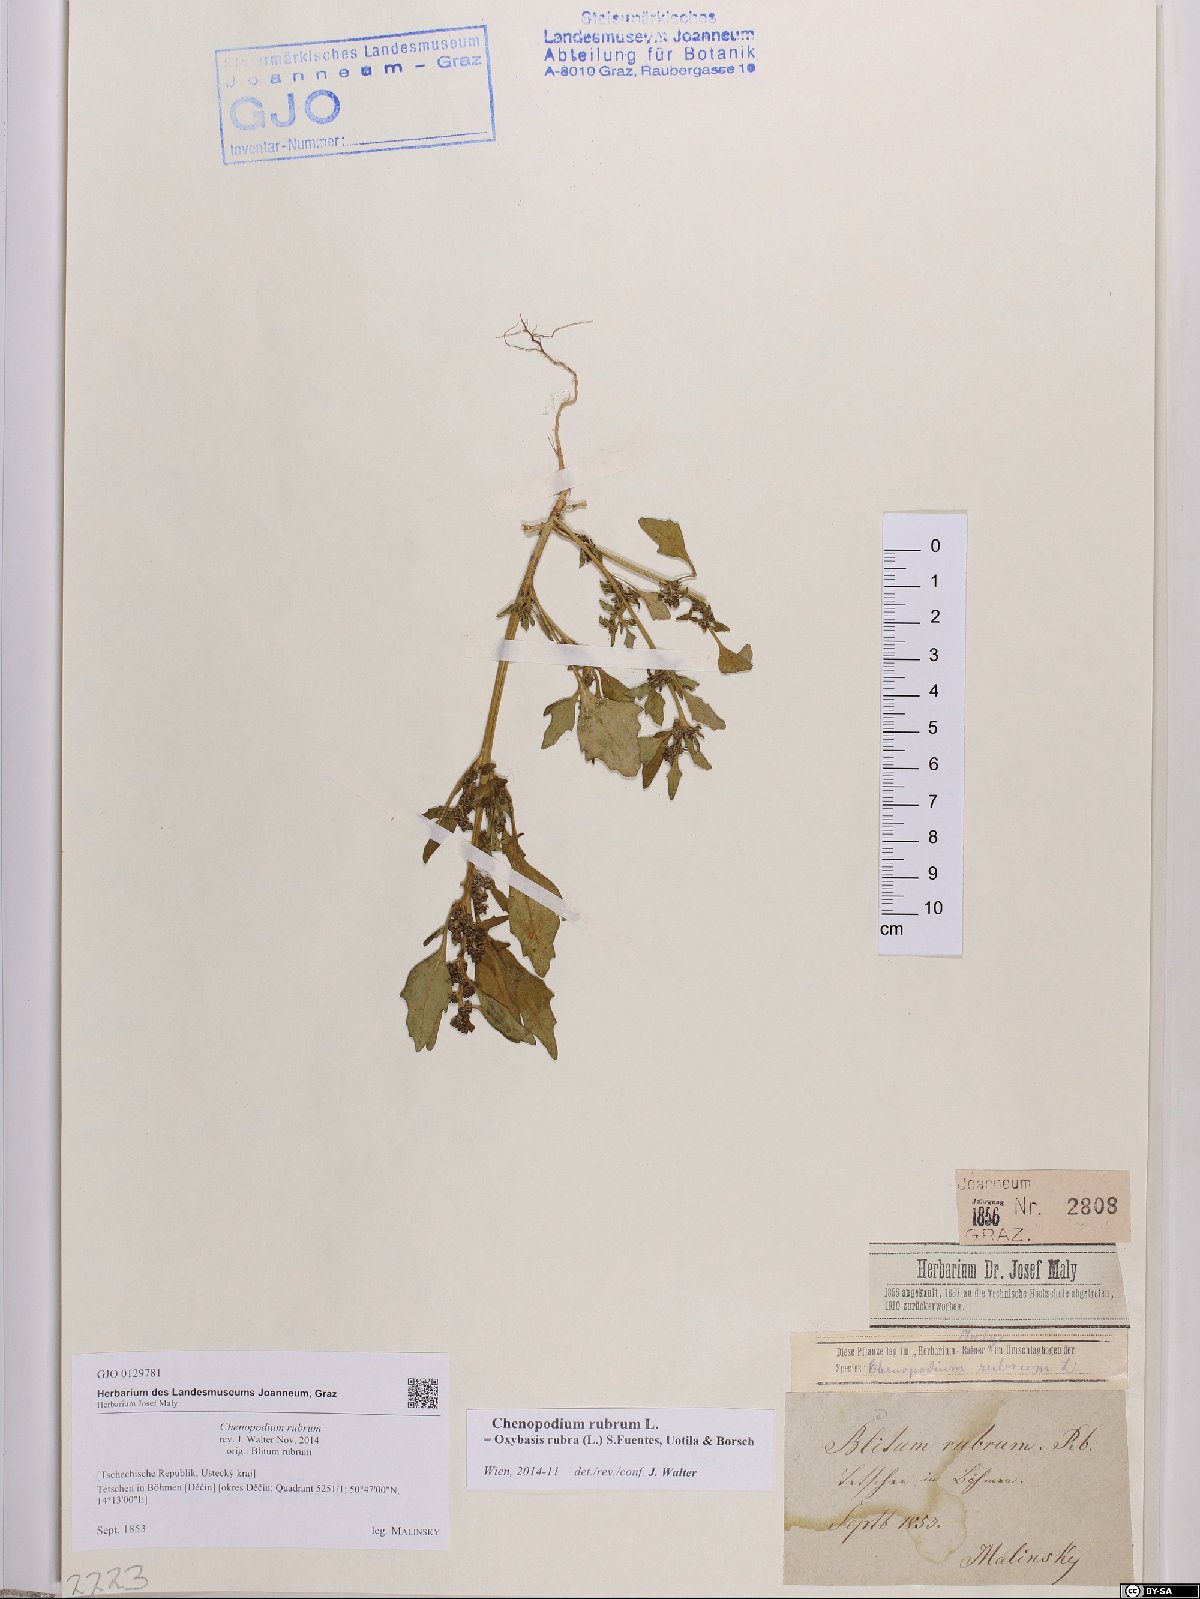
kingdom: Plantae
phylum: Tracheophyta
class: Magnoliopsida
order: Caryophyllales
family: Amaranthaceae
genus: Oxybasis
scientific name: Oxybasis rubra
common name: Red goosefoot
